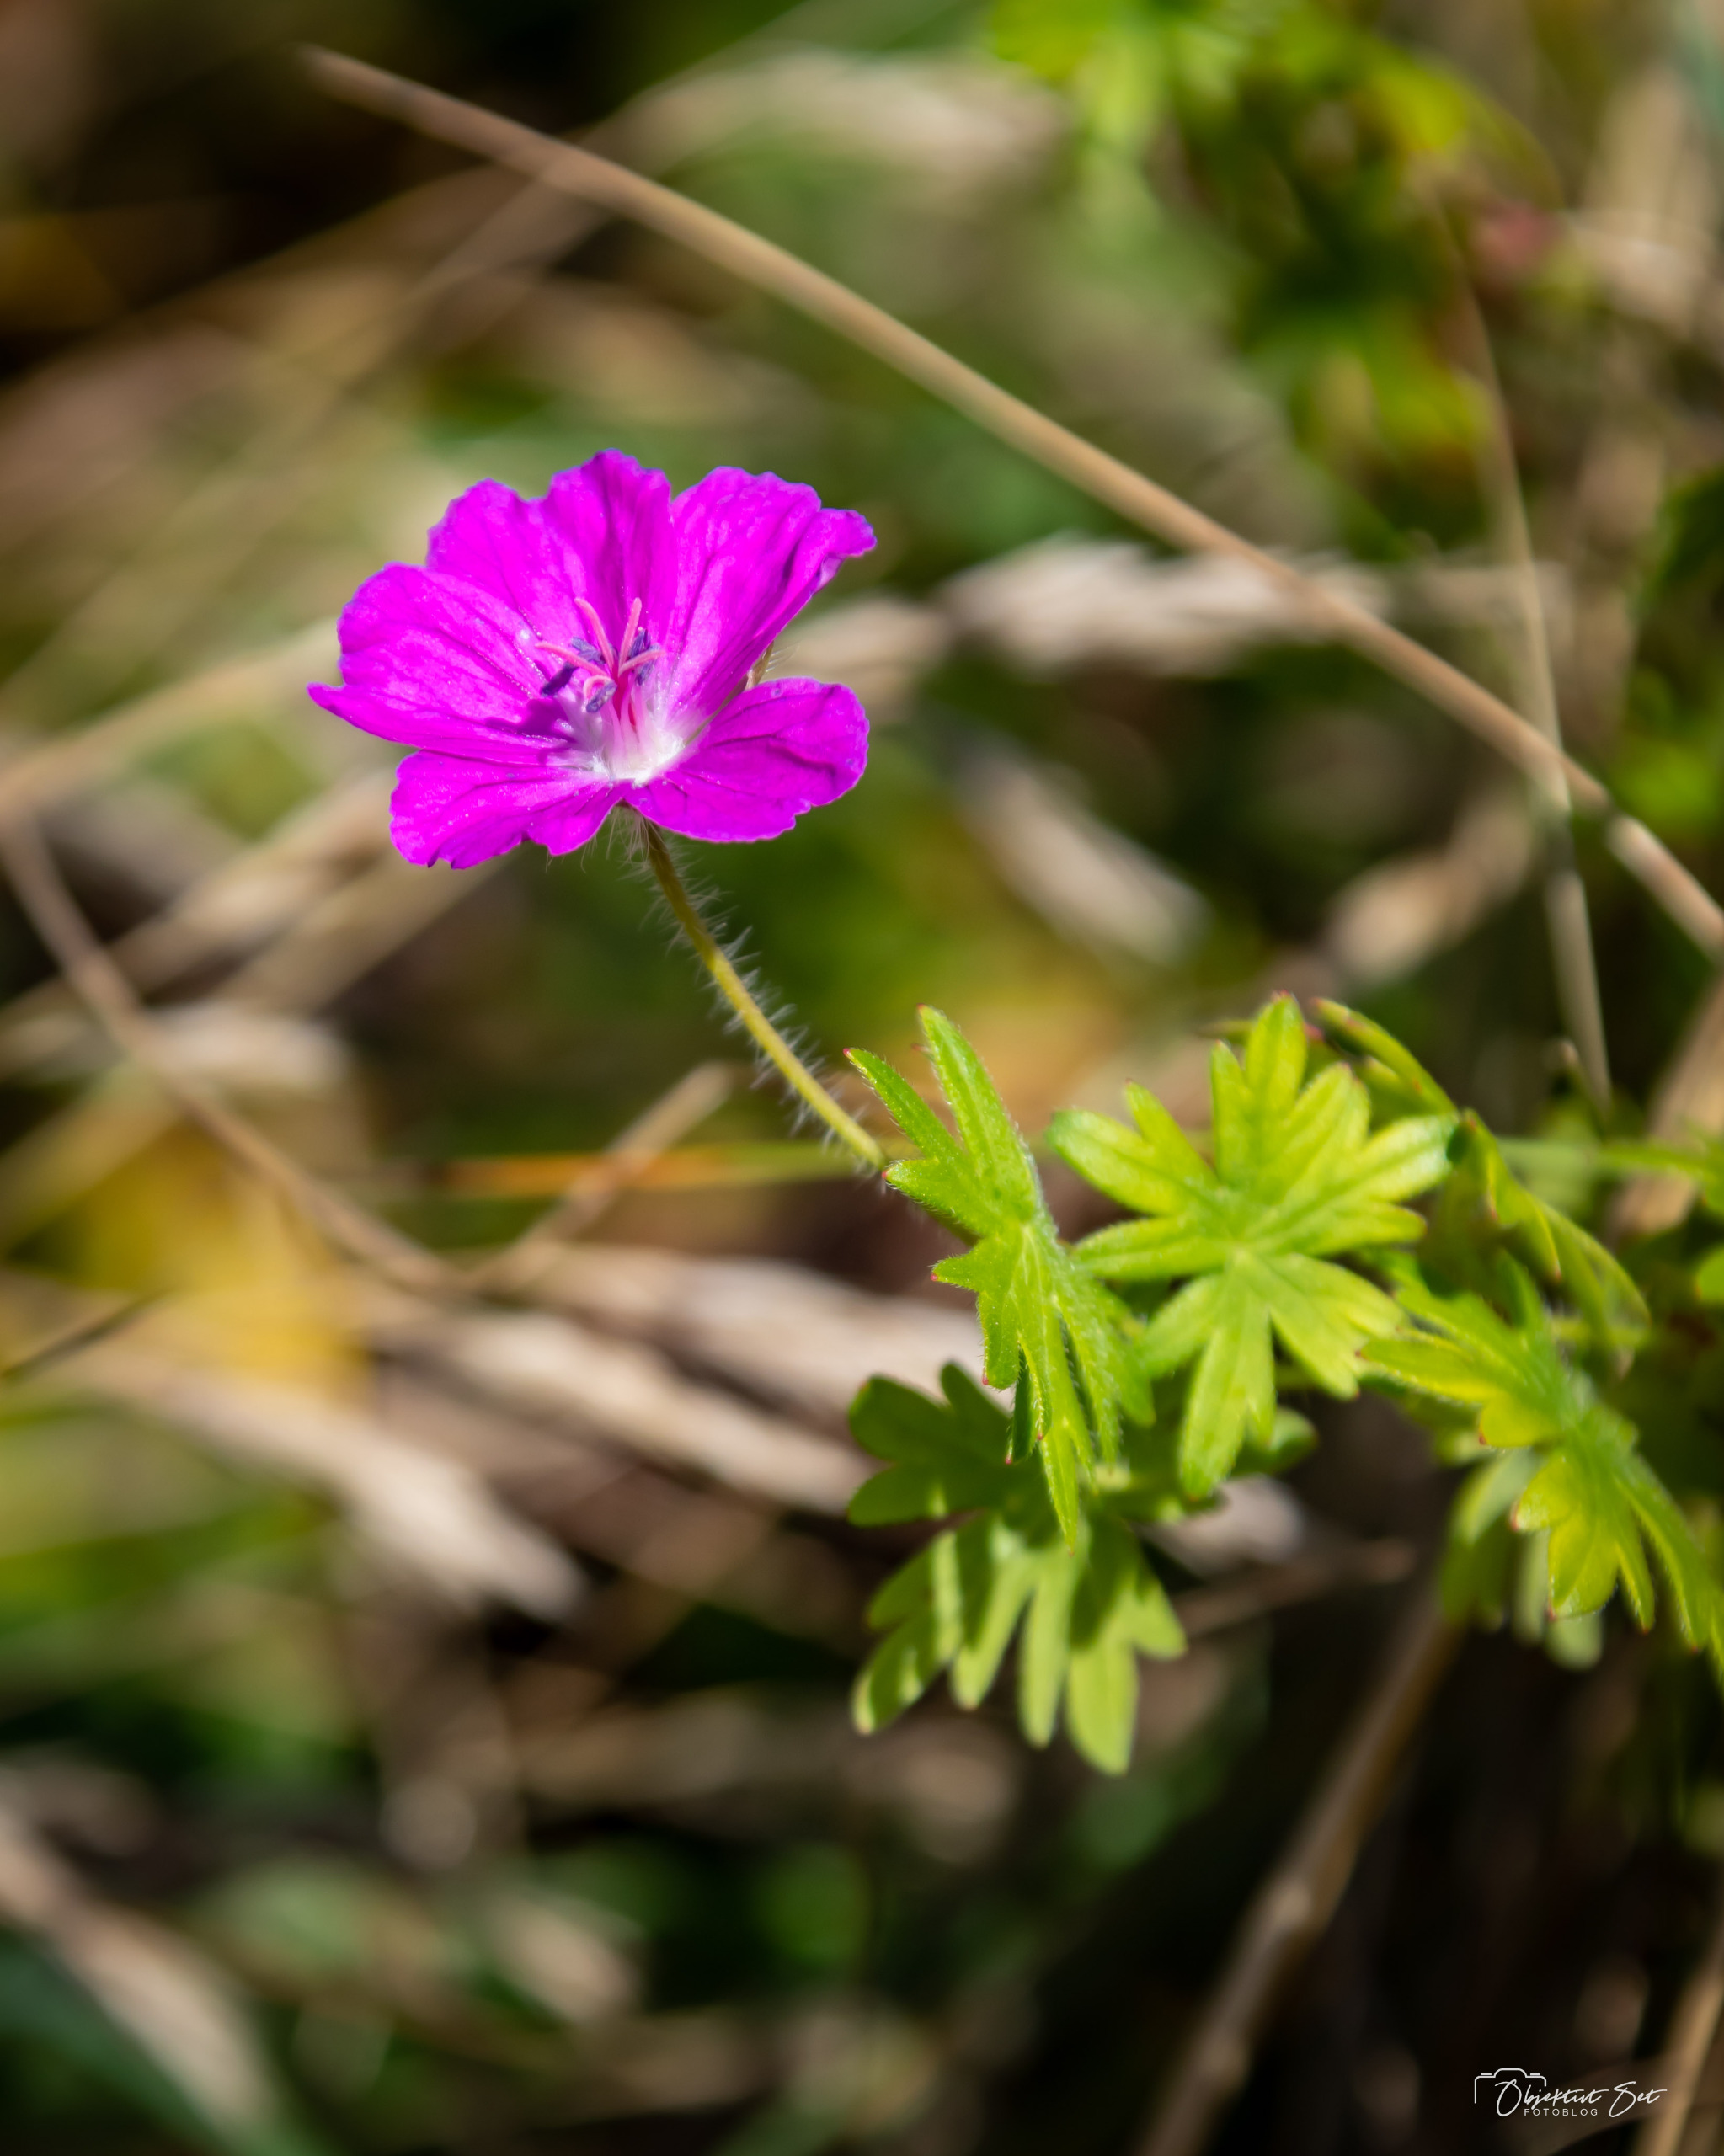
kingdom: Plantae
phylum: Tracheophyta
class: Magnoliopsida
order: Geraniales
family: Geraniaceae
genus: Geranium
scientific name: Geranium sanguineum
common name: Blodrød storkenæb
